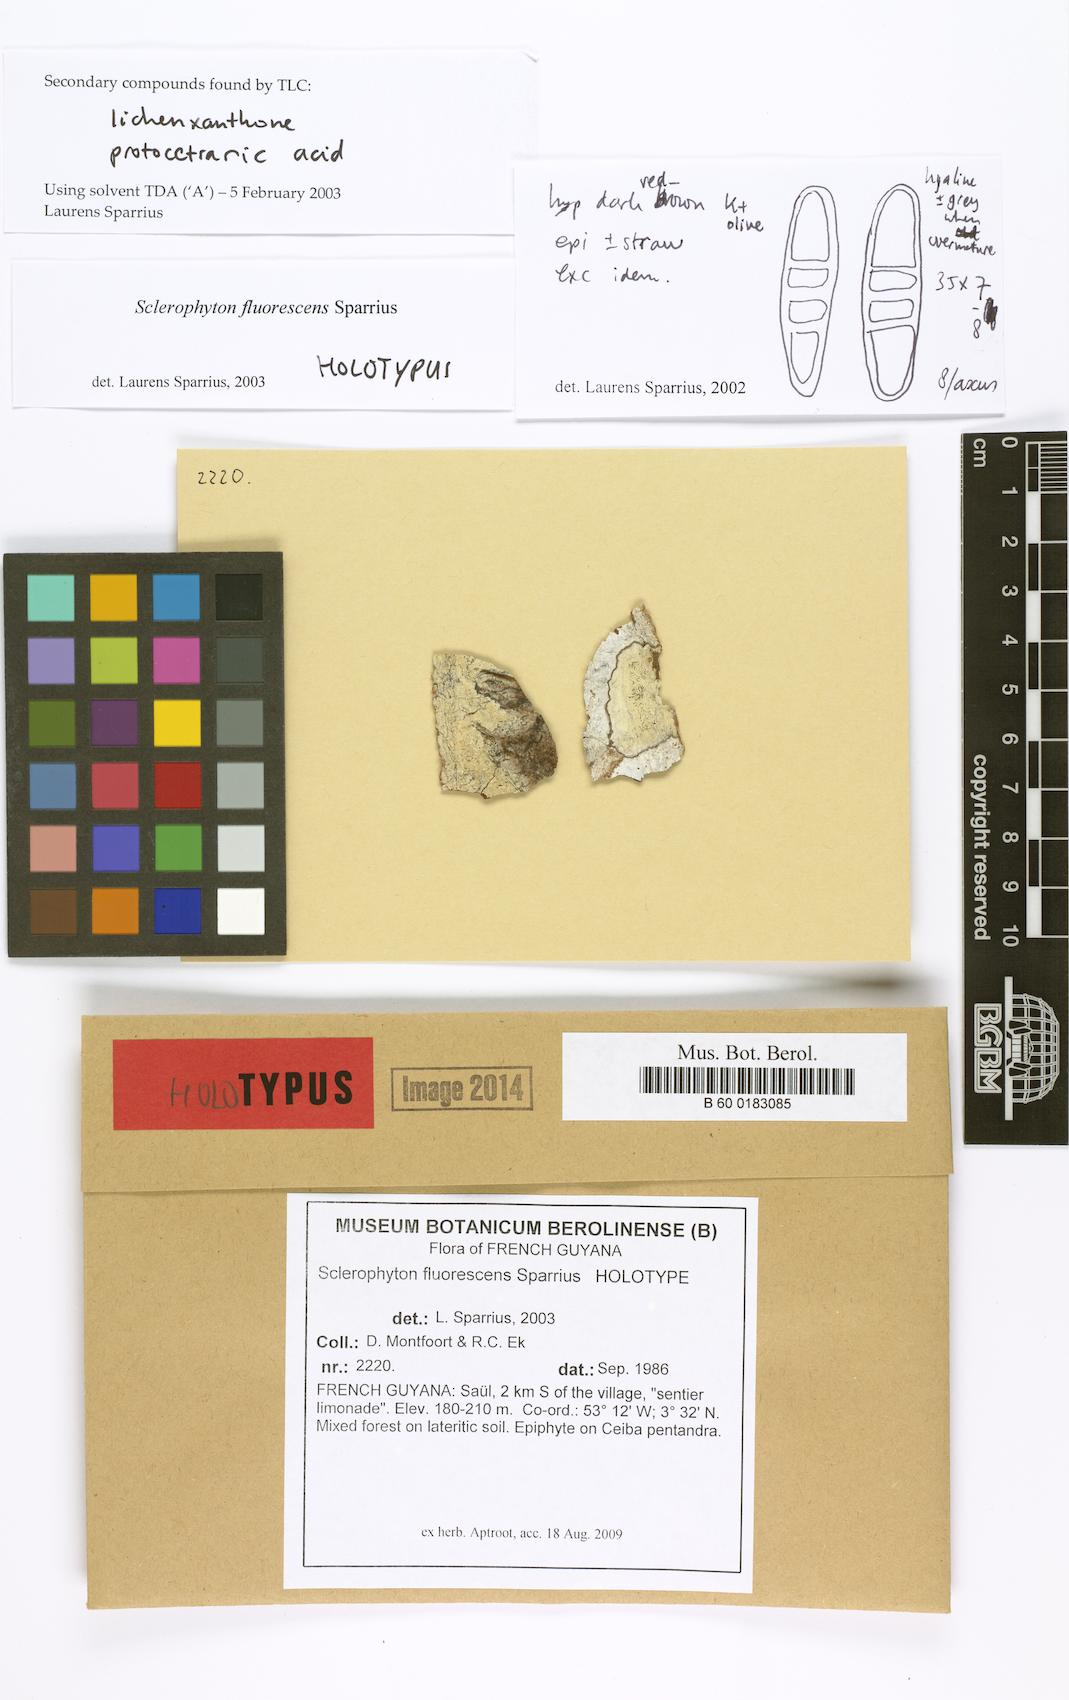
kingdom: Fungi
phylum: Ascomycota
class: Arthoniomycetes
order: Arthoniales
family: Opegraphaceae
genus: Sclerophyton
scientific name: Sclerophyton fluorescens
